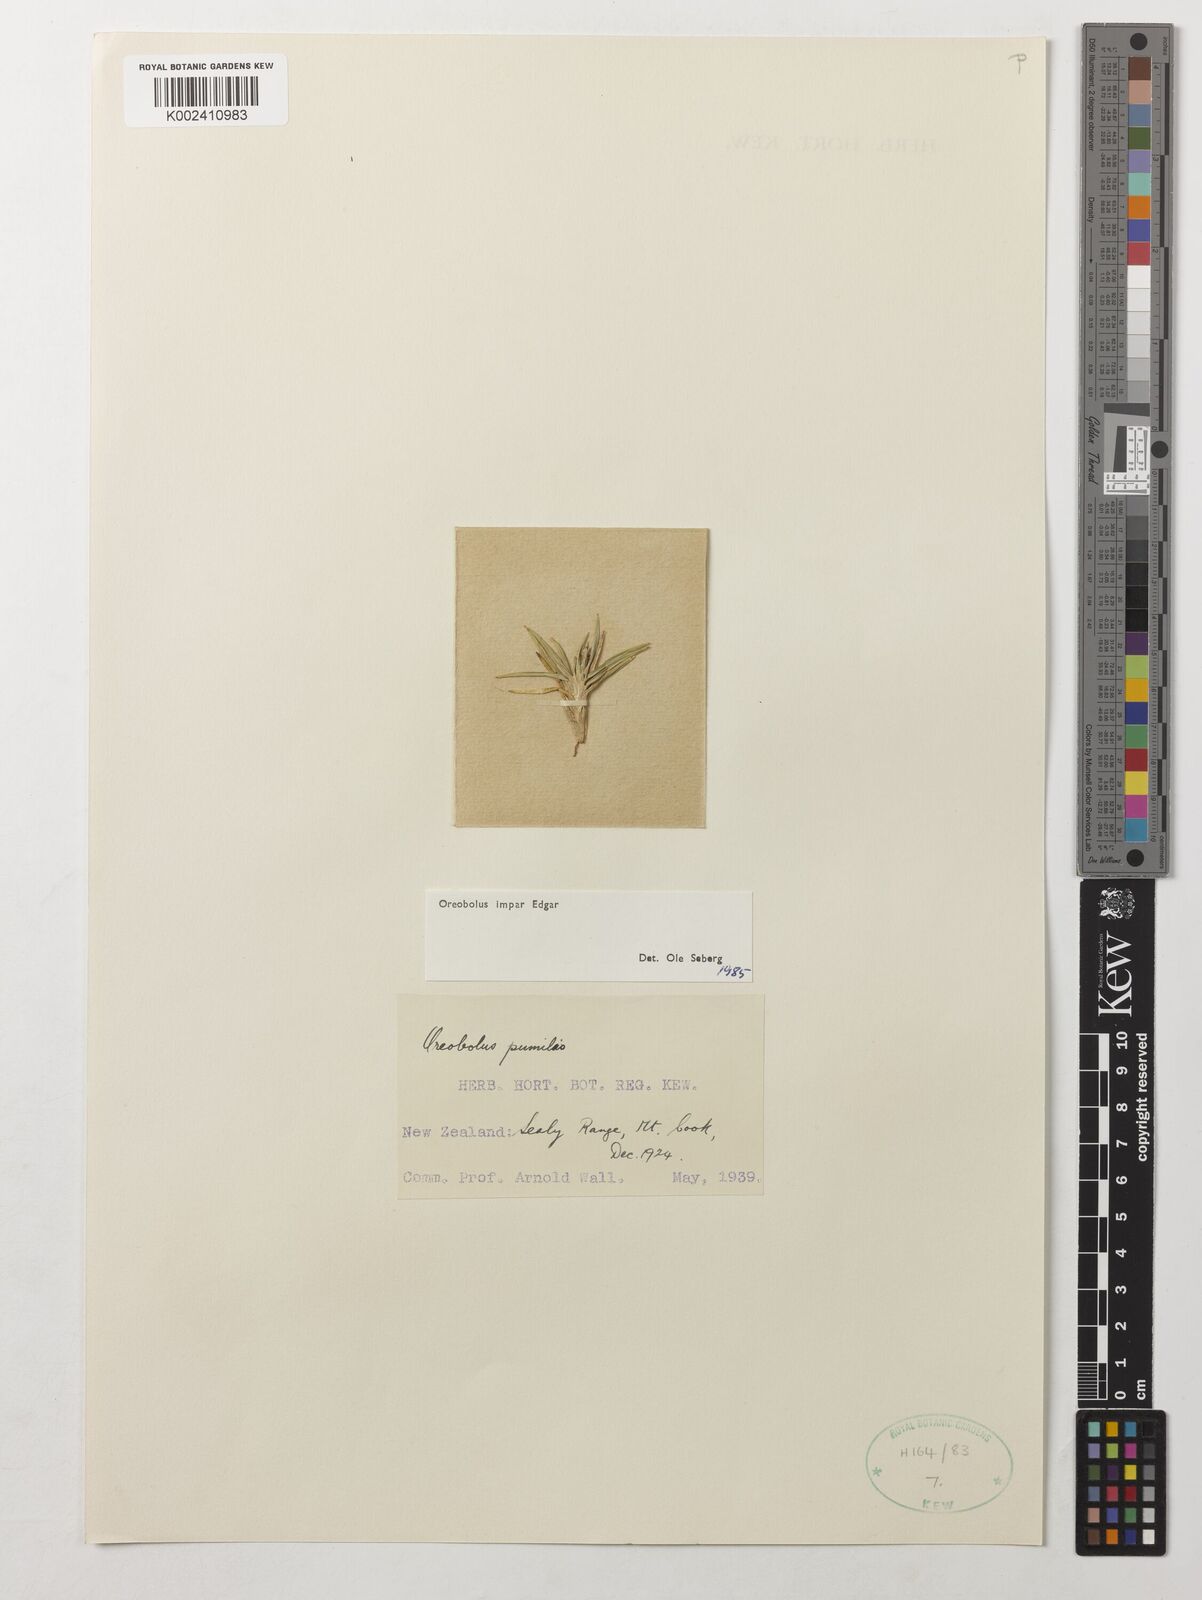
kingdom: Plantae
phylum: Tracheophyta
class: Liliopsida
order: Poales
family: Cyperaceae
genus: Oreobolus
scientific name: Oreobolus impar
